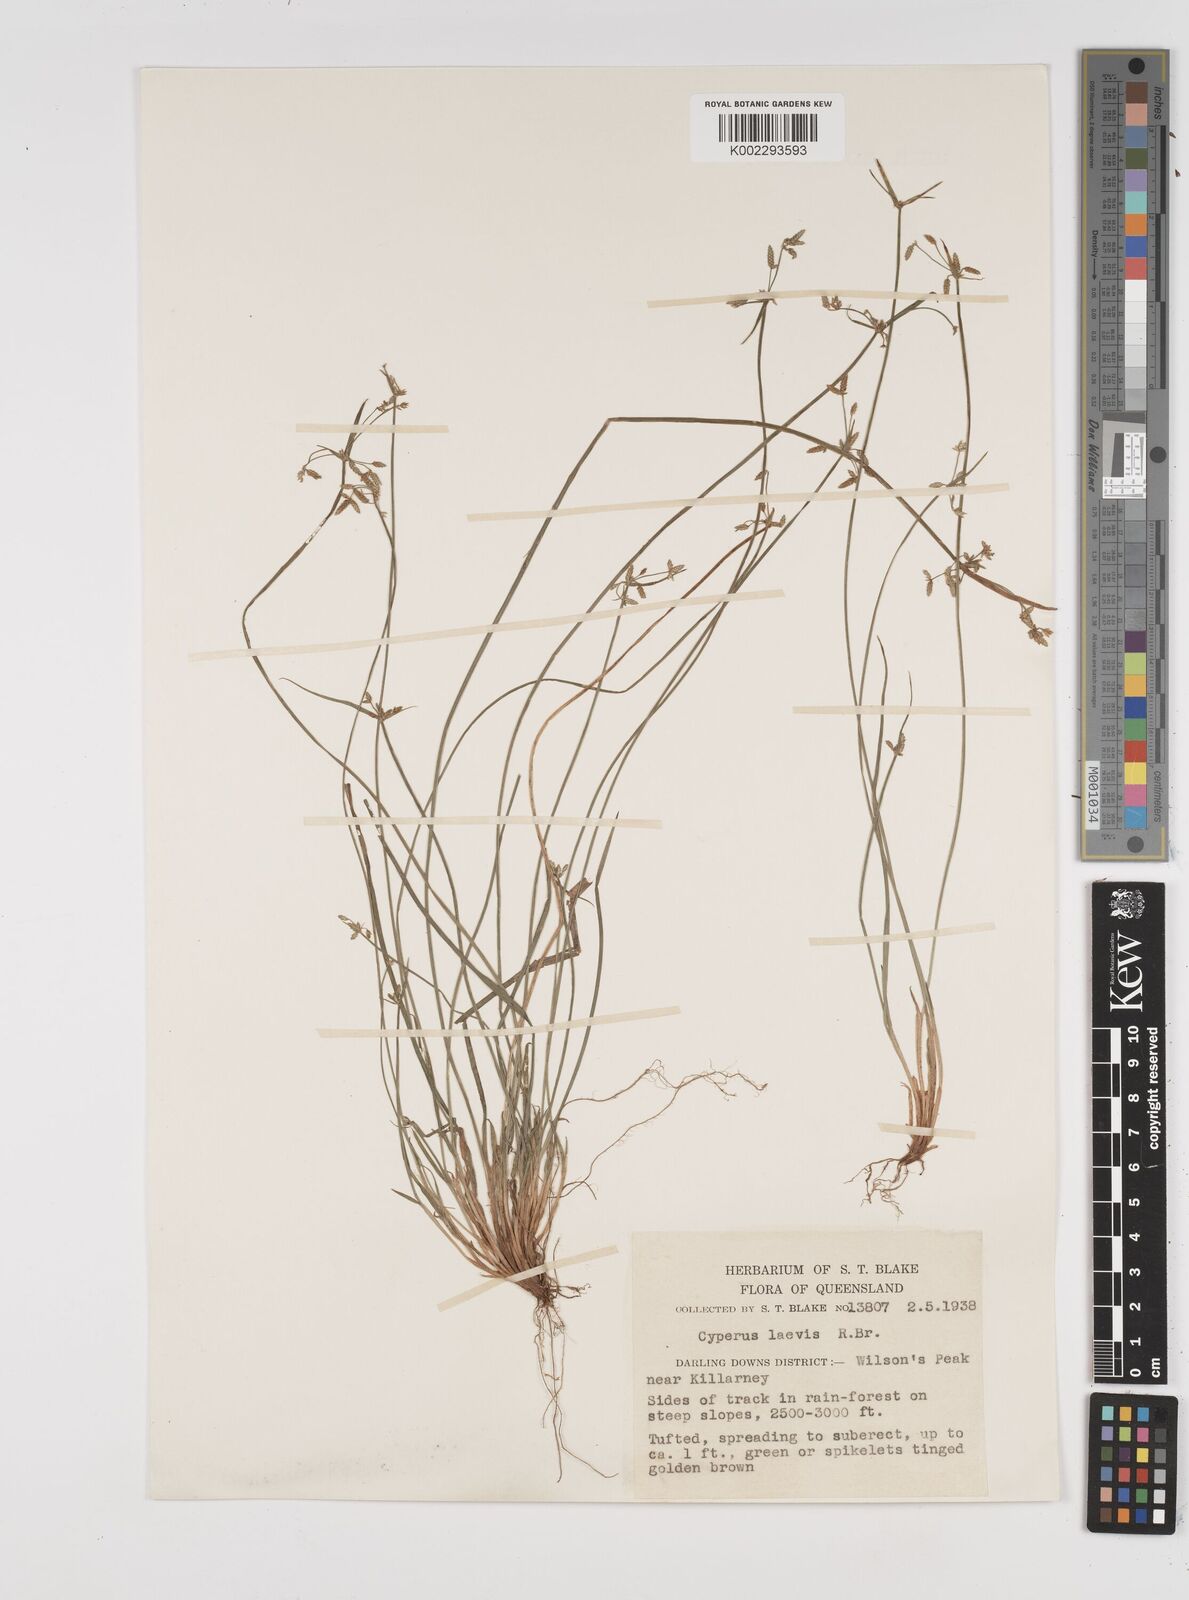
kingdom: Plantae
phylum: Tracheophyta
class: Liliopsida
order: Poales
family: Cyperaceae
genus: Cyperus
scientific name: Cyperus laevis
